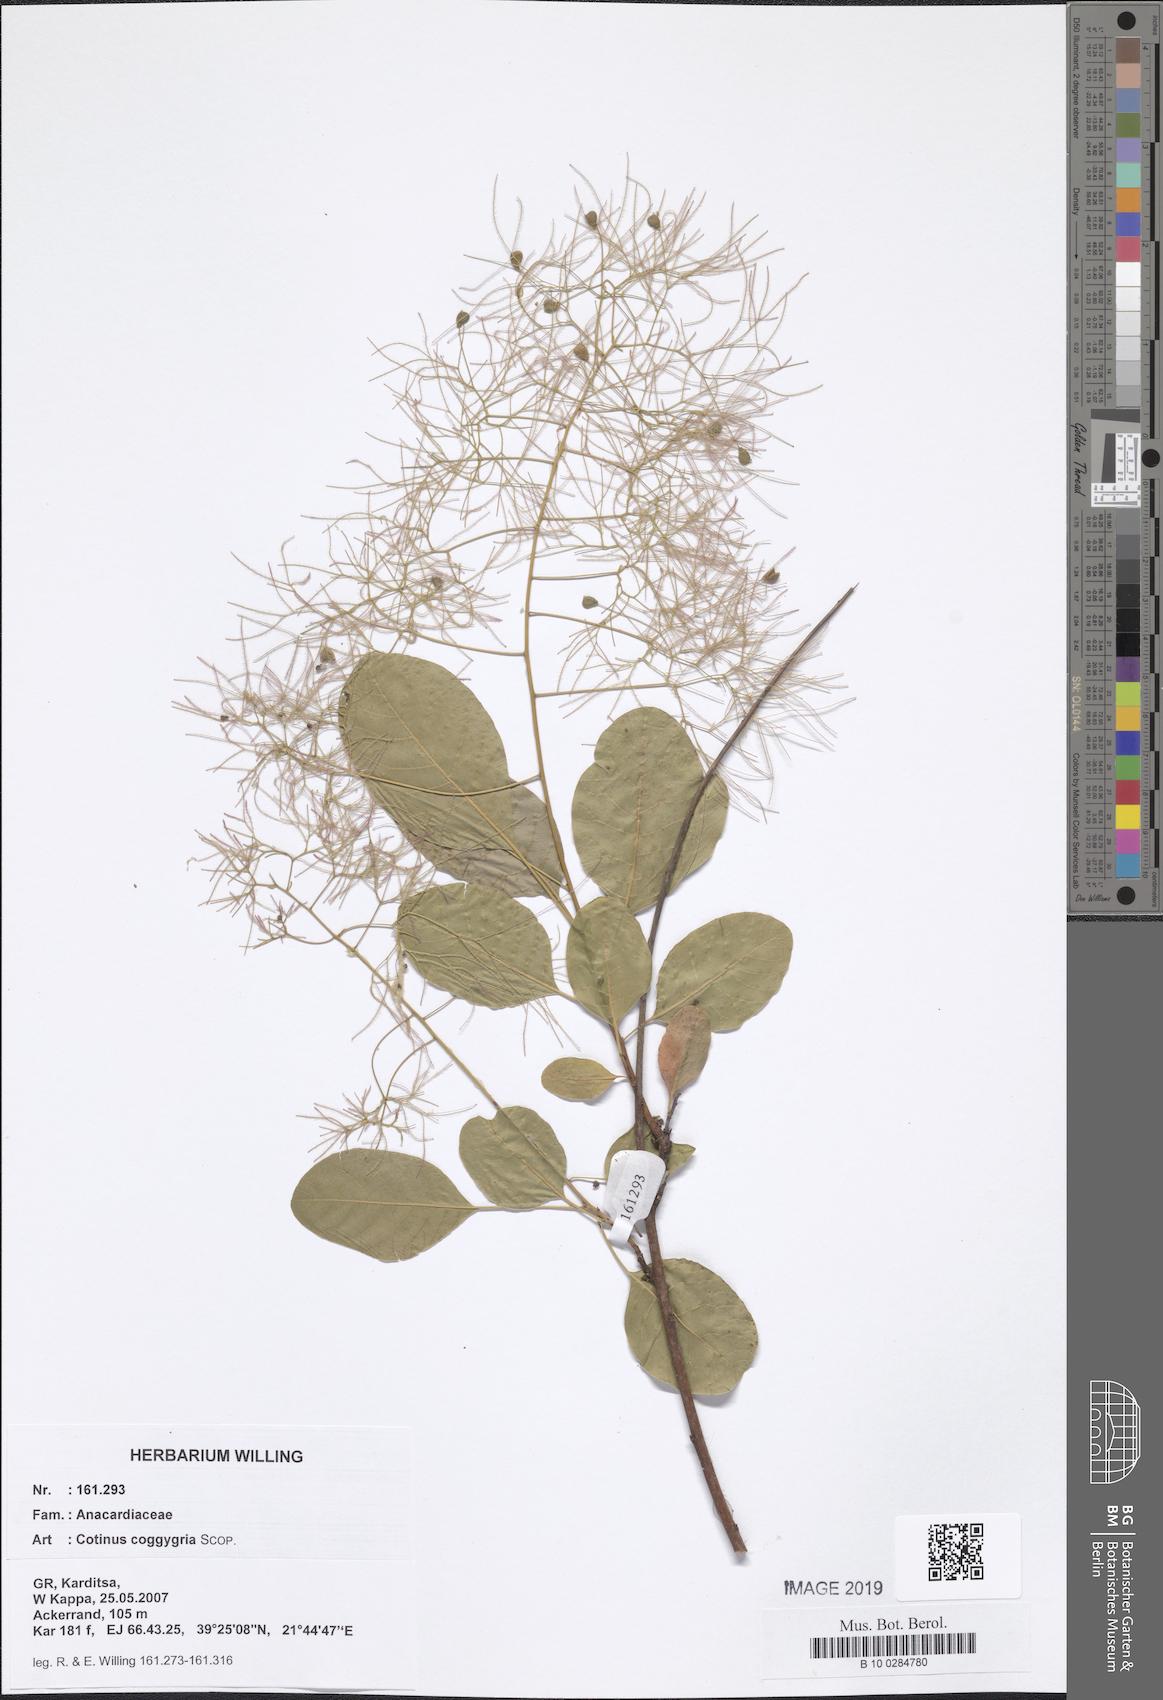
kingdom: Plantae
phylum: Tracheophyta
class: Magnoliopsida
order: Sapindales
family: Anacardiaceae
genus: Cotinus
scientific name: Cotinus coggygria
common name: Smoke-tree
